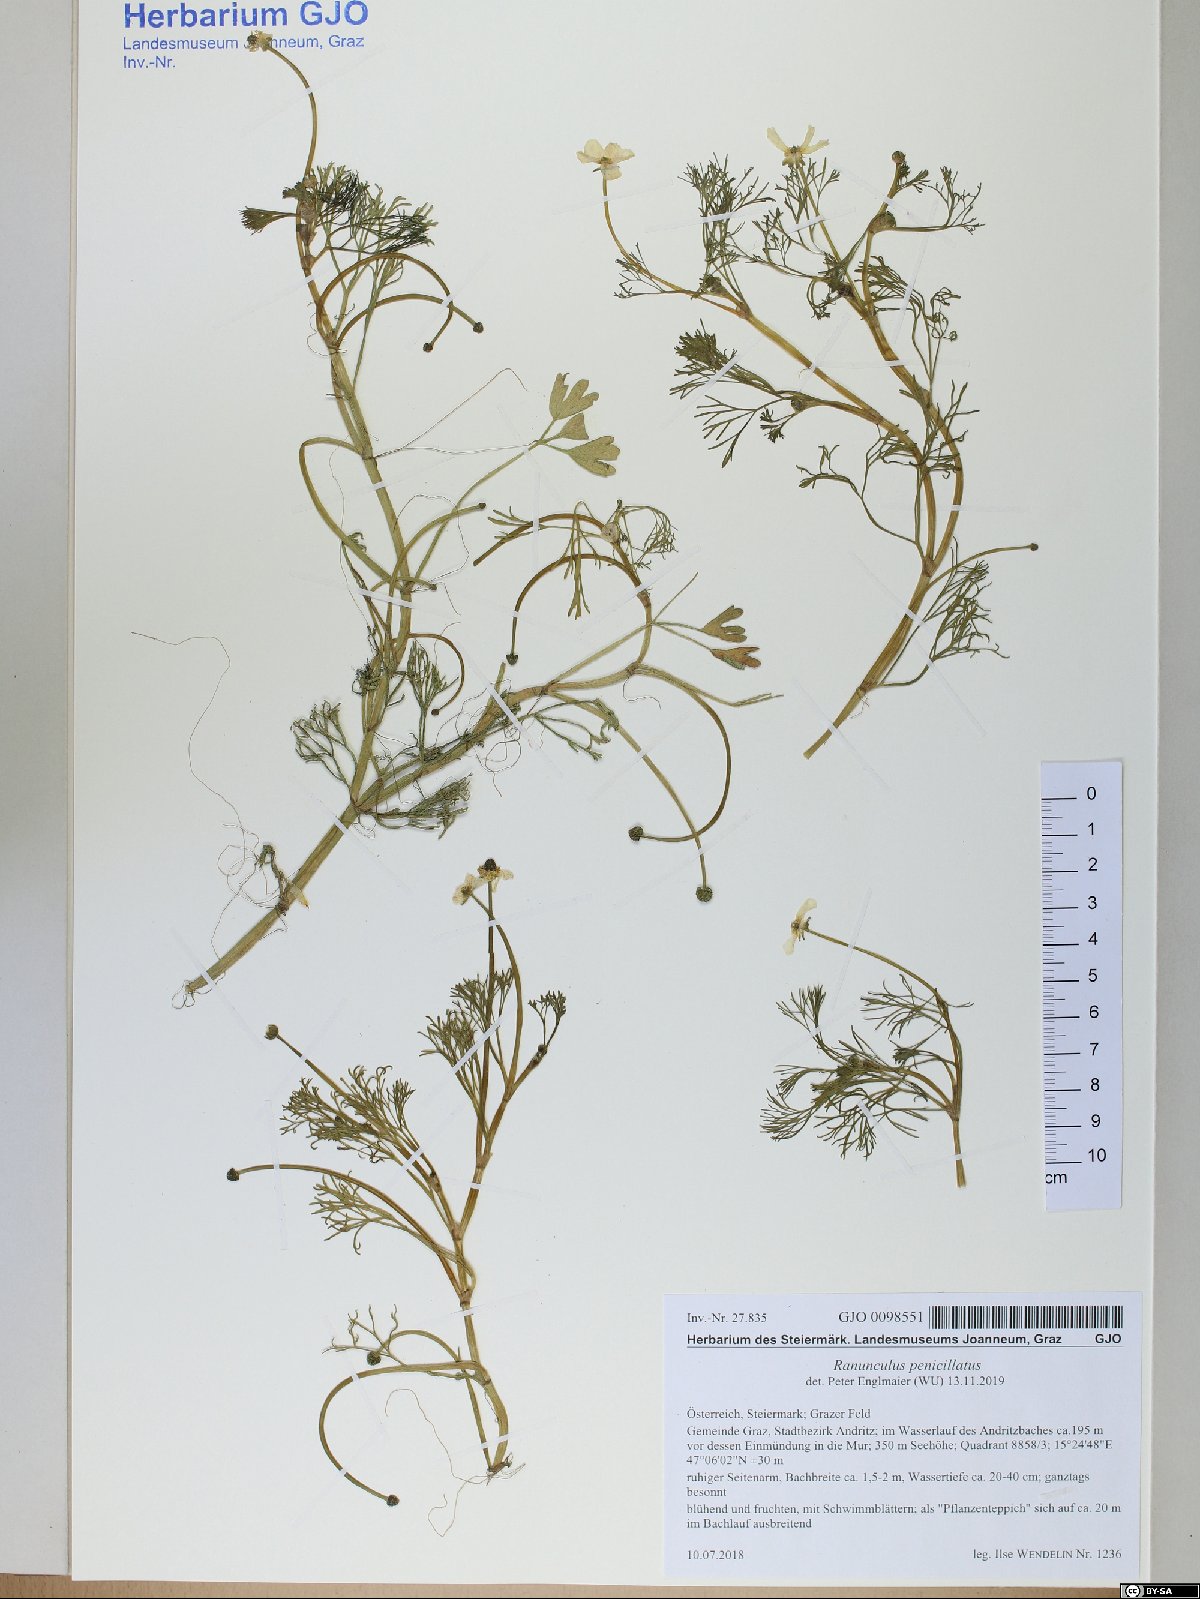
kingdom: Plantae
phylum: Tracheophyta
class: Magnoliopsida
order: Ranunculales
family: Ranunculaceae
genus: Ranunculus
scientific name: Ranunculus penicillatus
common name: Stream water-crowfoot
